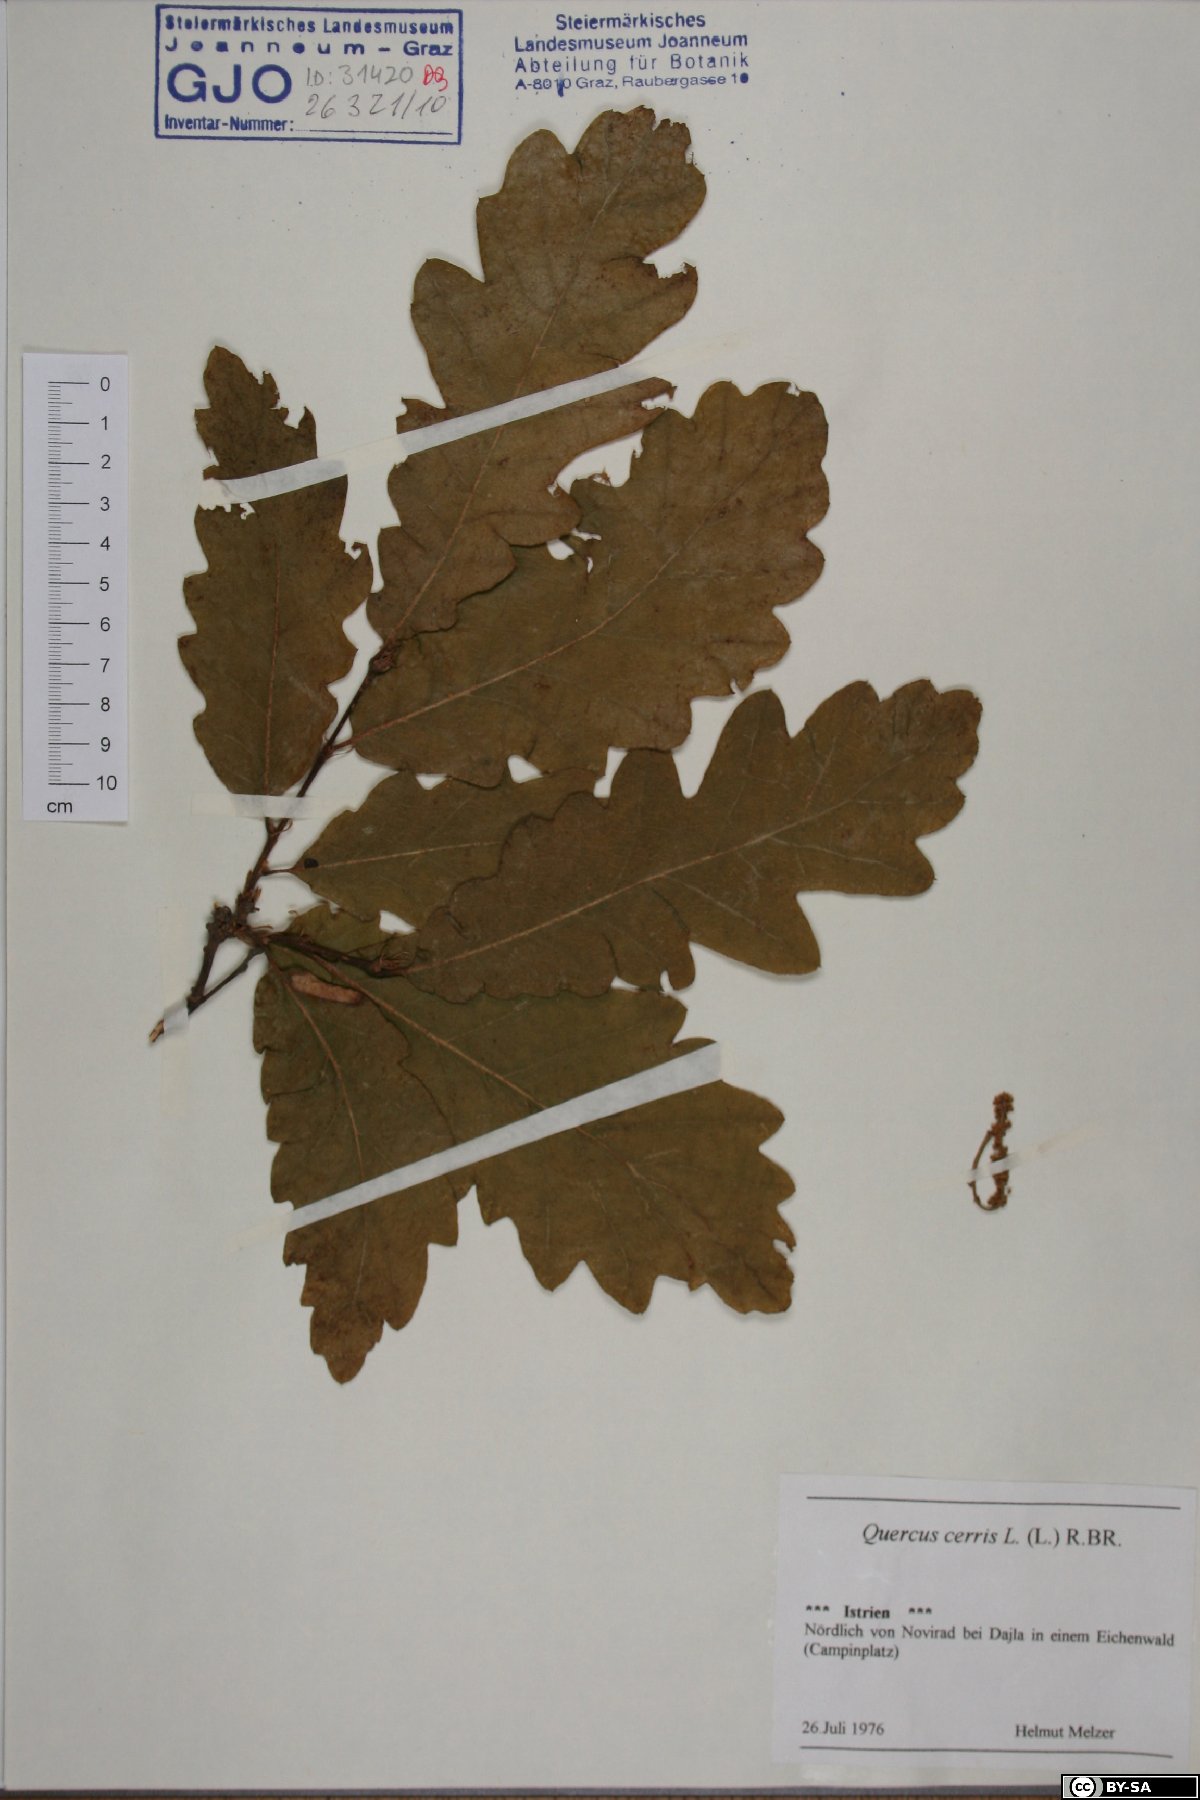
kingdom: Plantae
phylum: Tracheophyta
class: Magnoliopsida
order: Fagales
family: Fagaceae
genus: Quercus
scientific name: Quercus cerris
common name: Turkey oak
